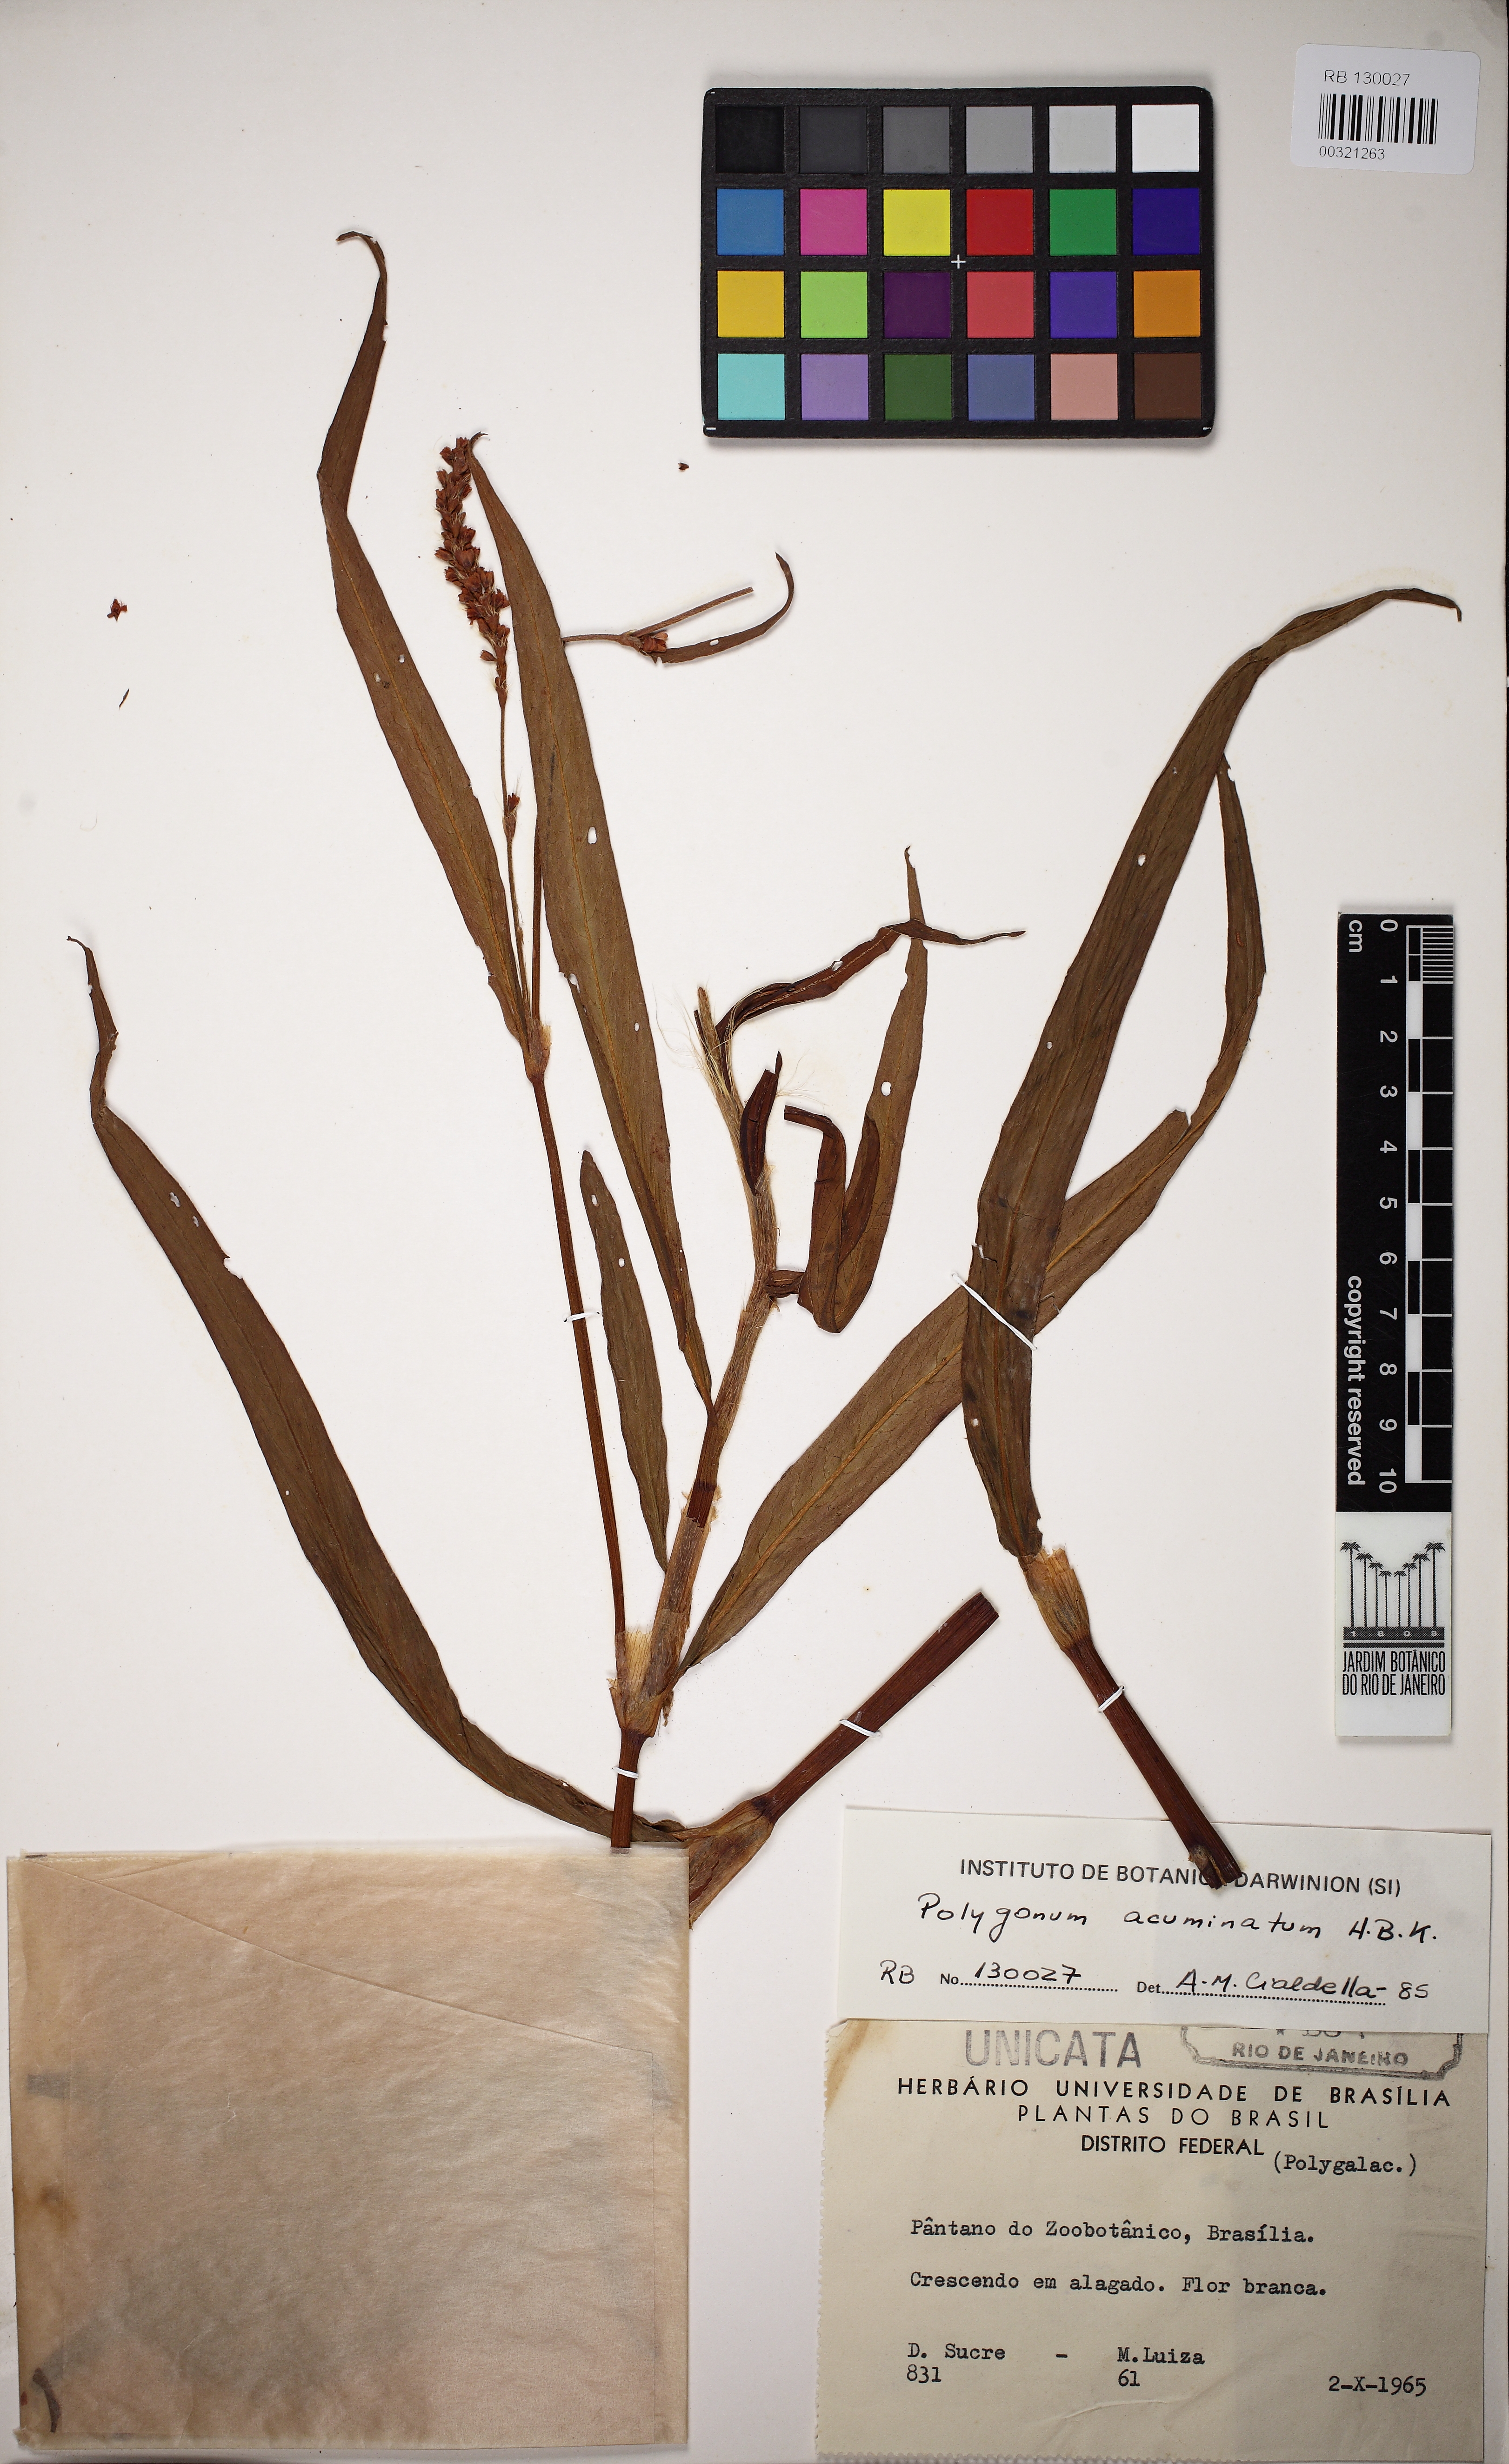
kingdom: Plantae
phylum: Tracheophyta
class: Magnoliopsida
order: Caryophyllales
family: Polygonaceae
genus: Persicaria
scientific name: Persicaria acuminata
